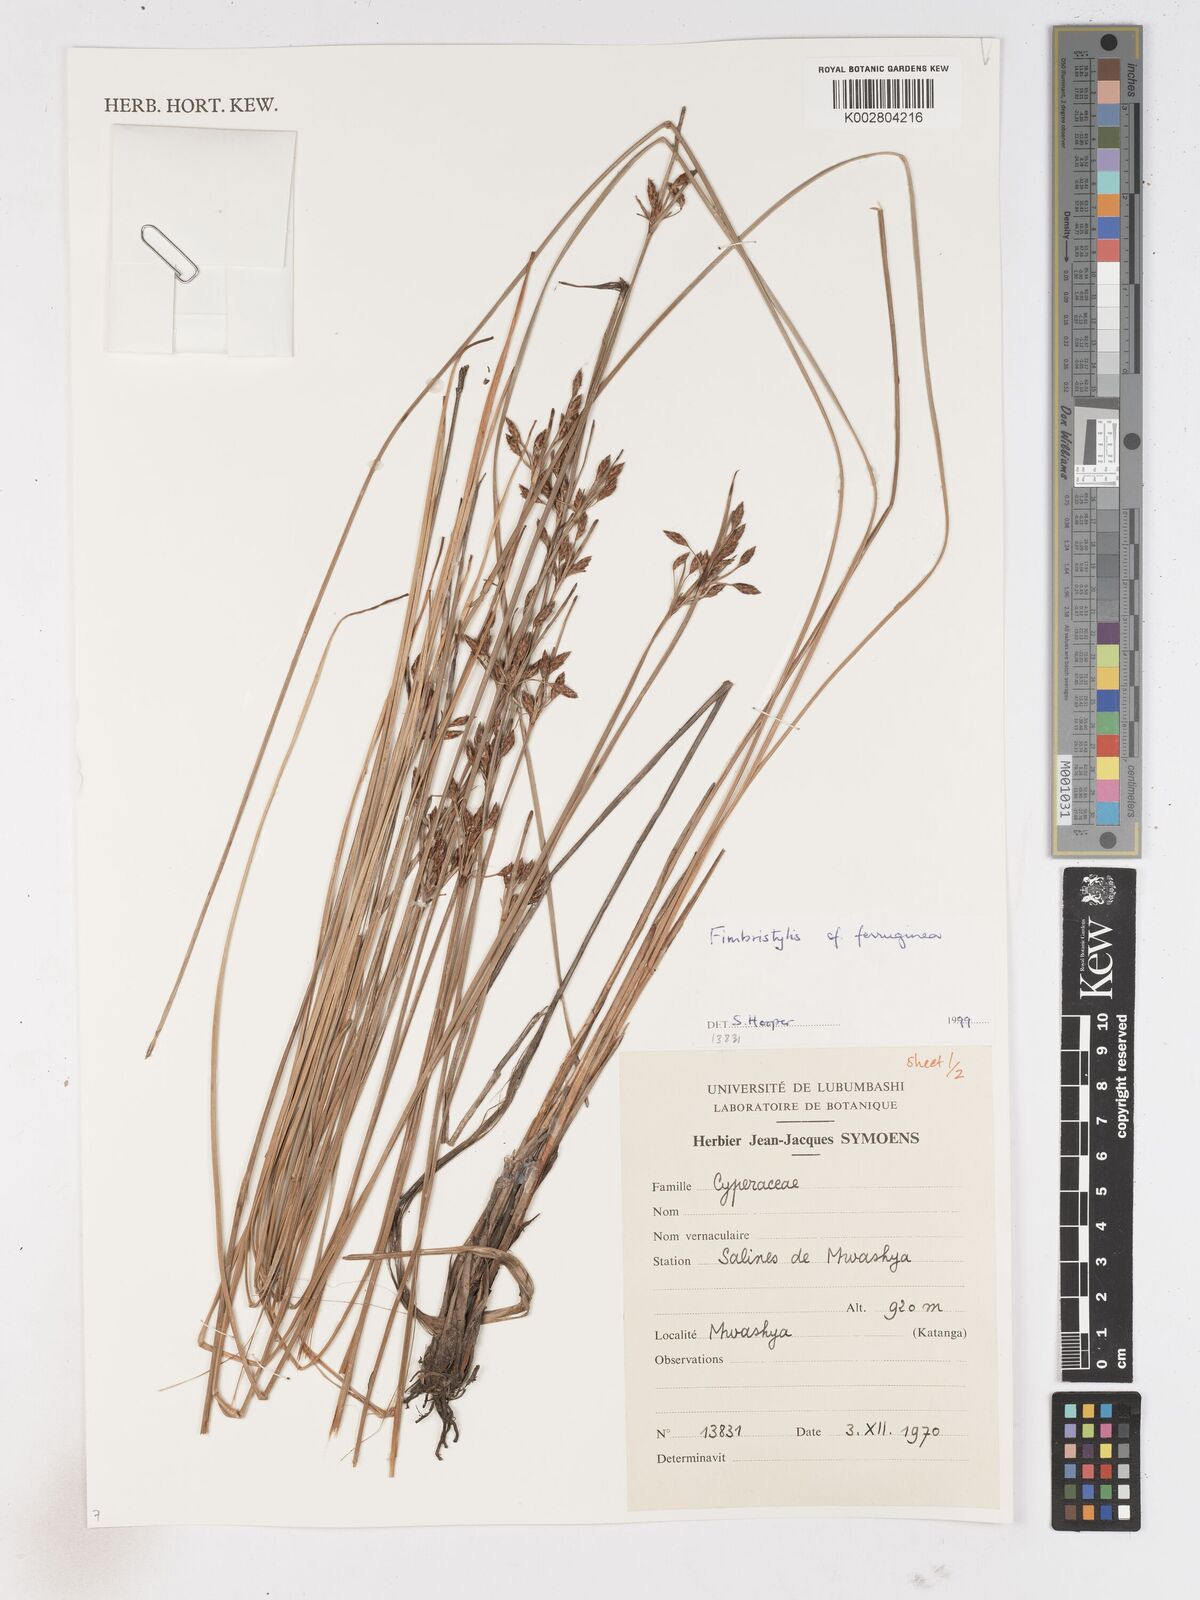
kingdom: Plantae
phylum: Tracheophyta
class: Liliopsida
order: Poales
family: Cyperaceae
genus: Fimbristylis
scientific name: Fimbristylis ferruginea
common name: West indian fimbry
